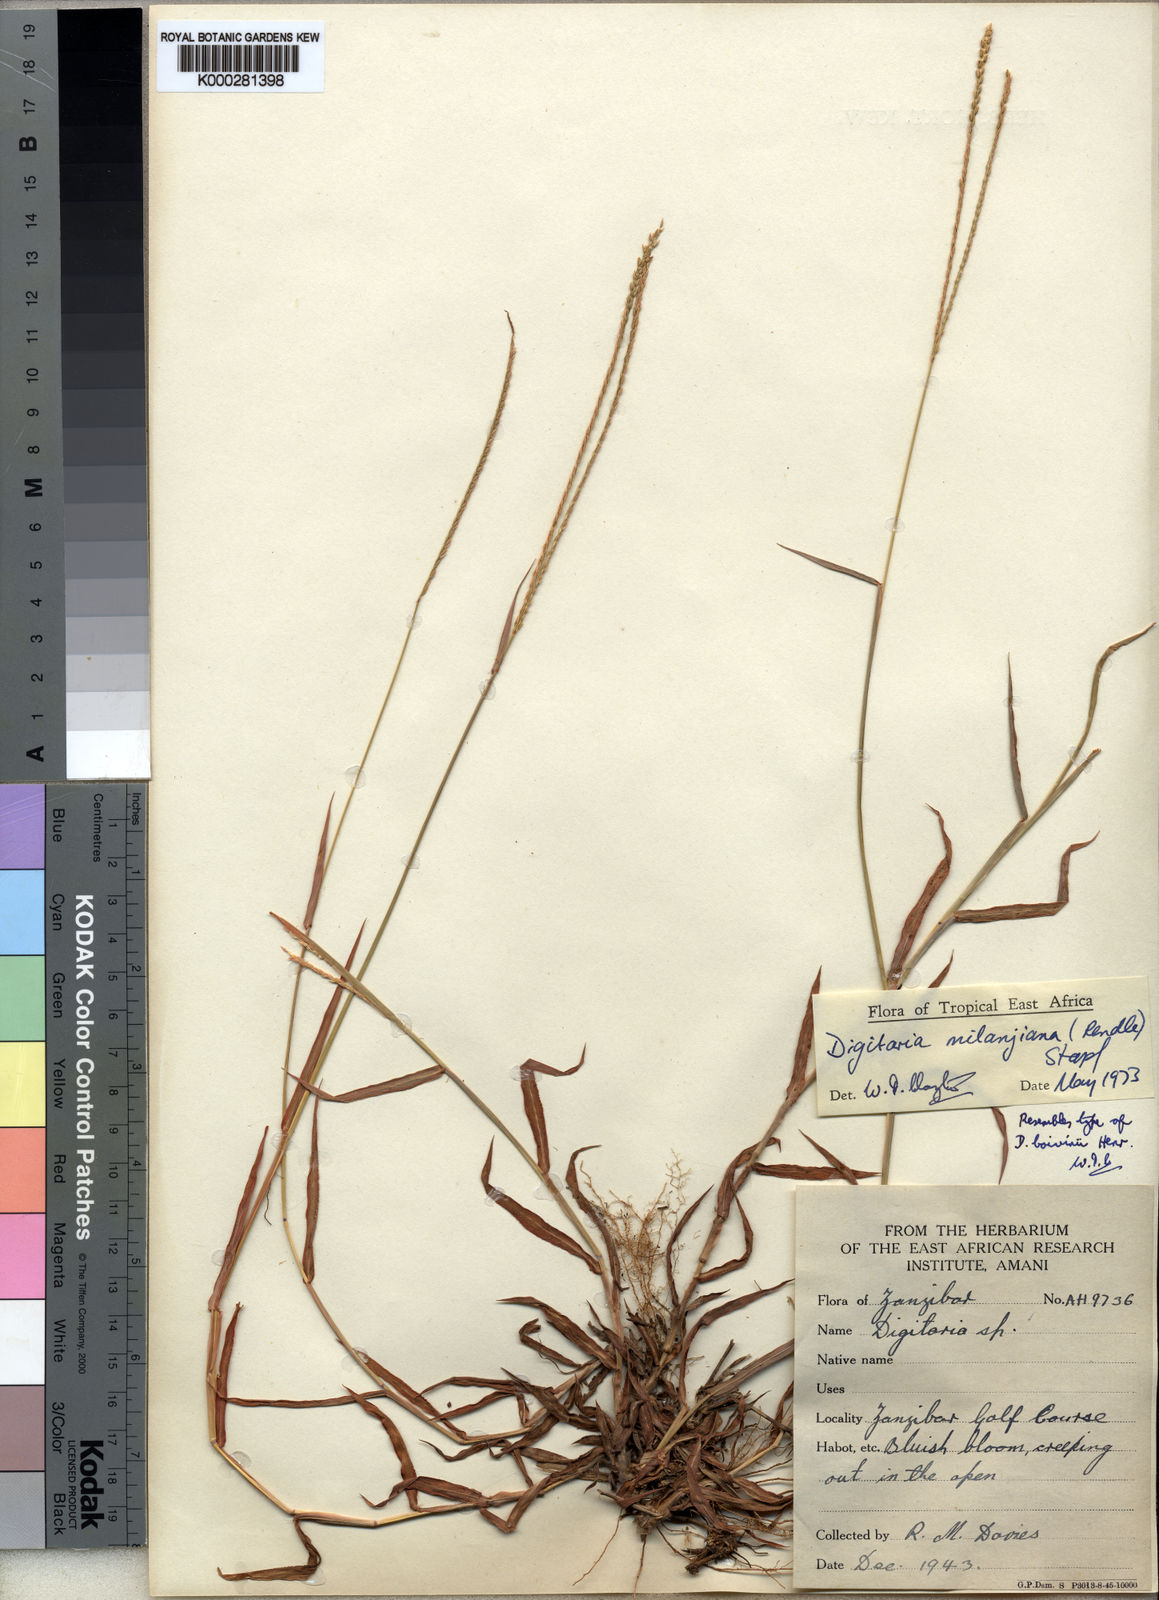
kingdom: Plantae
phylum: Tracheophyta
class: Liliopsida
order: Poales
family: Poaceae
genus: Digitaria
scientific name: Digitaria milanjiana
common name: Madagascar crabgrass
